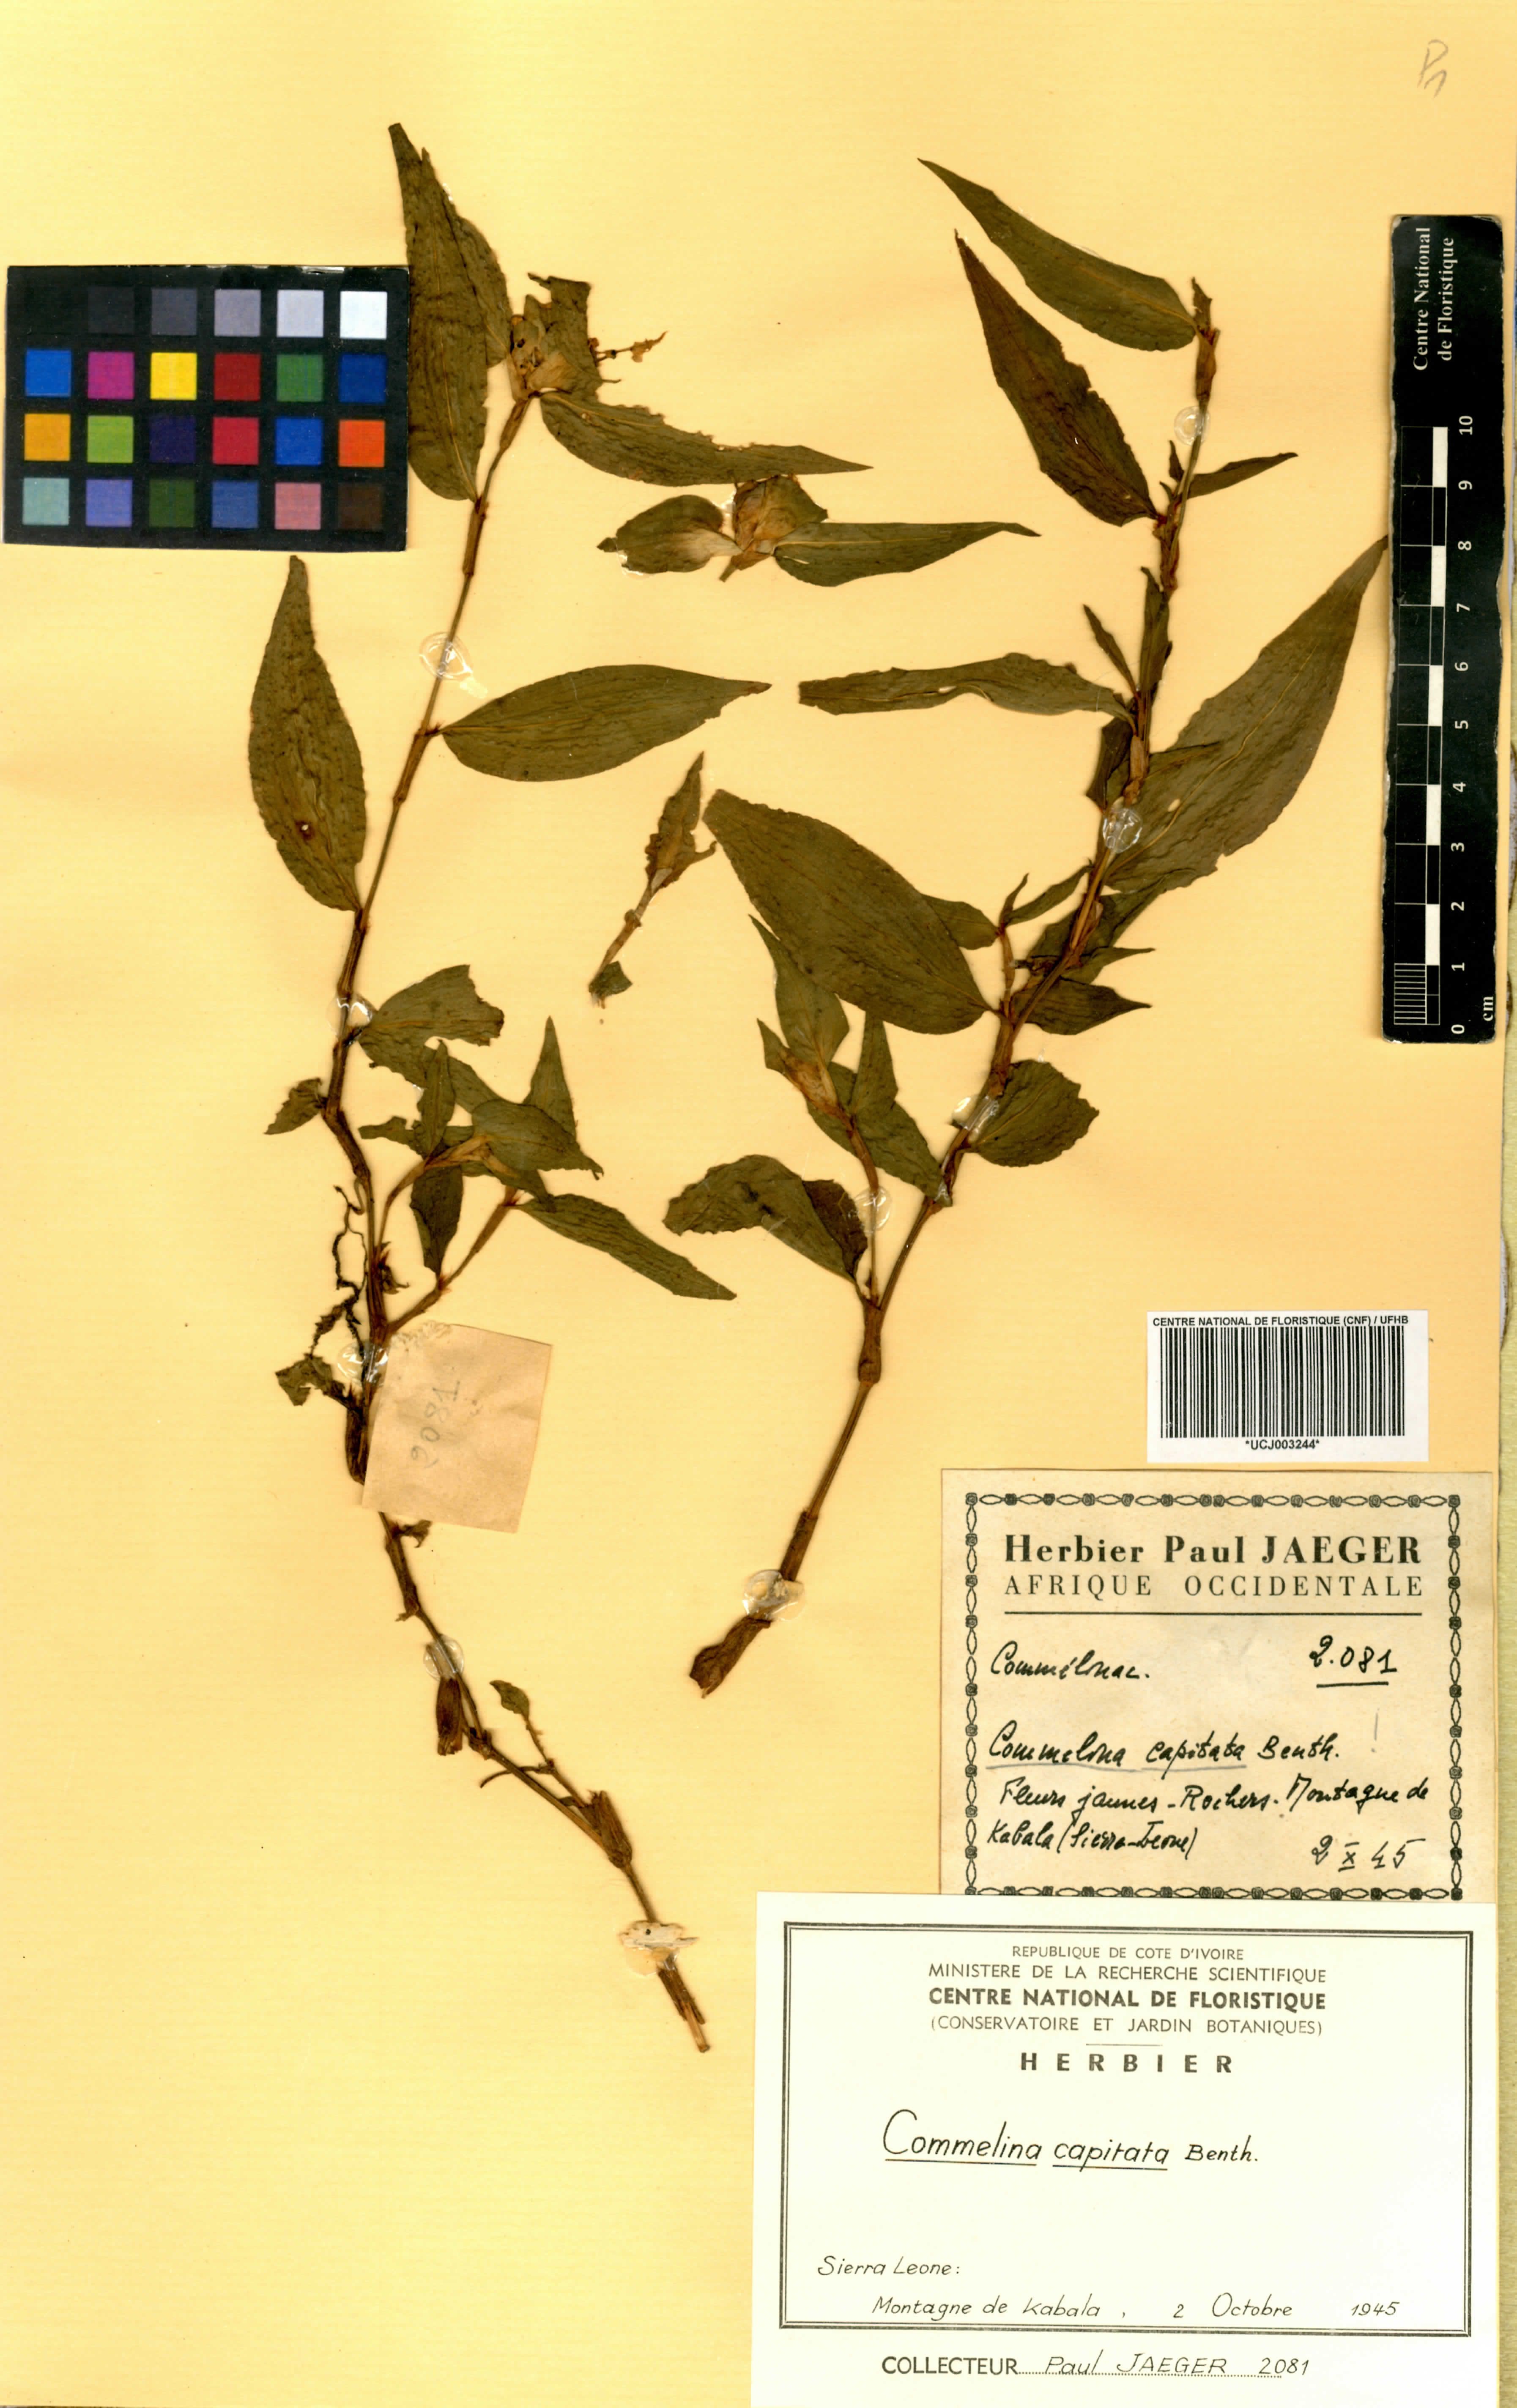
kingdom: Plantae
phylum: Tracheophyta
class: Liliopsida
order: Commelinales
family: Commelinaceae
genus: Commelina
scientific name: Commelina capitata
